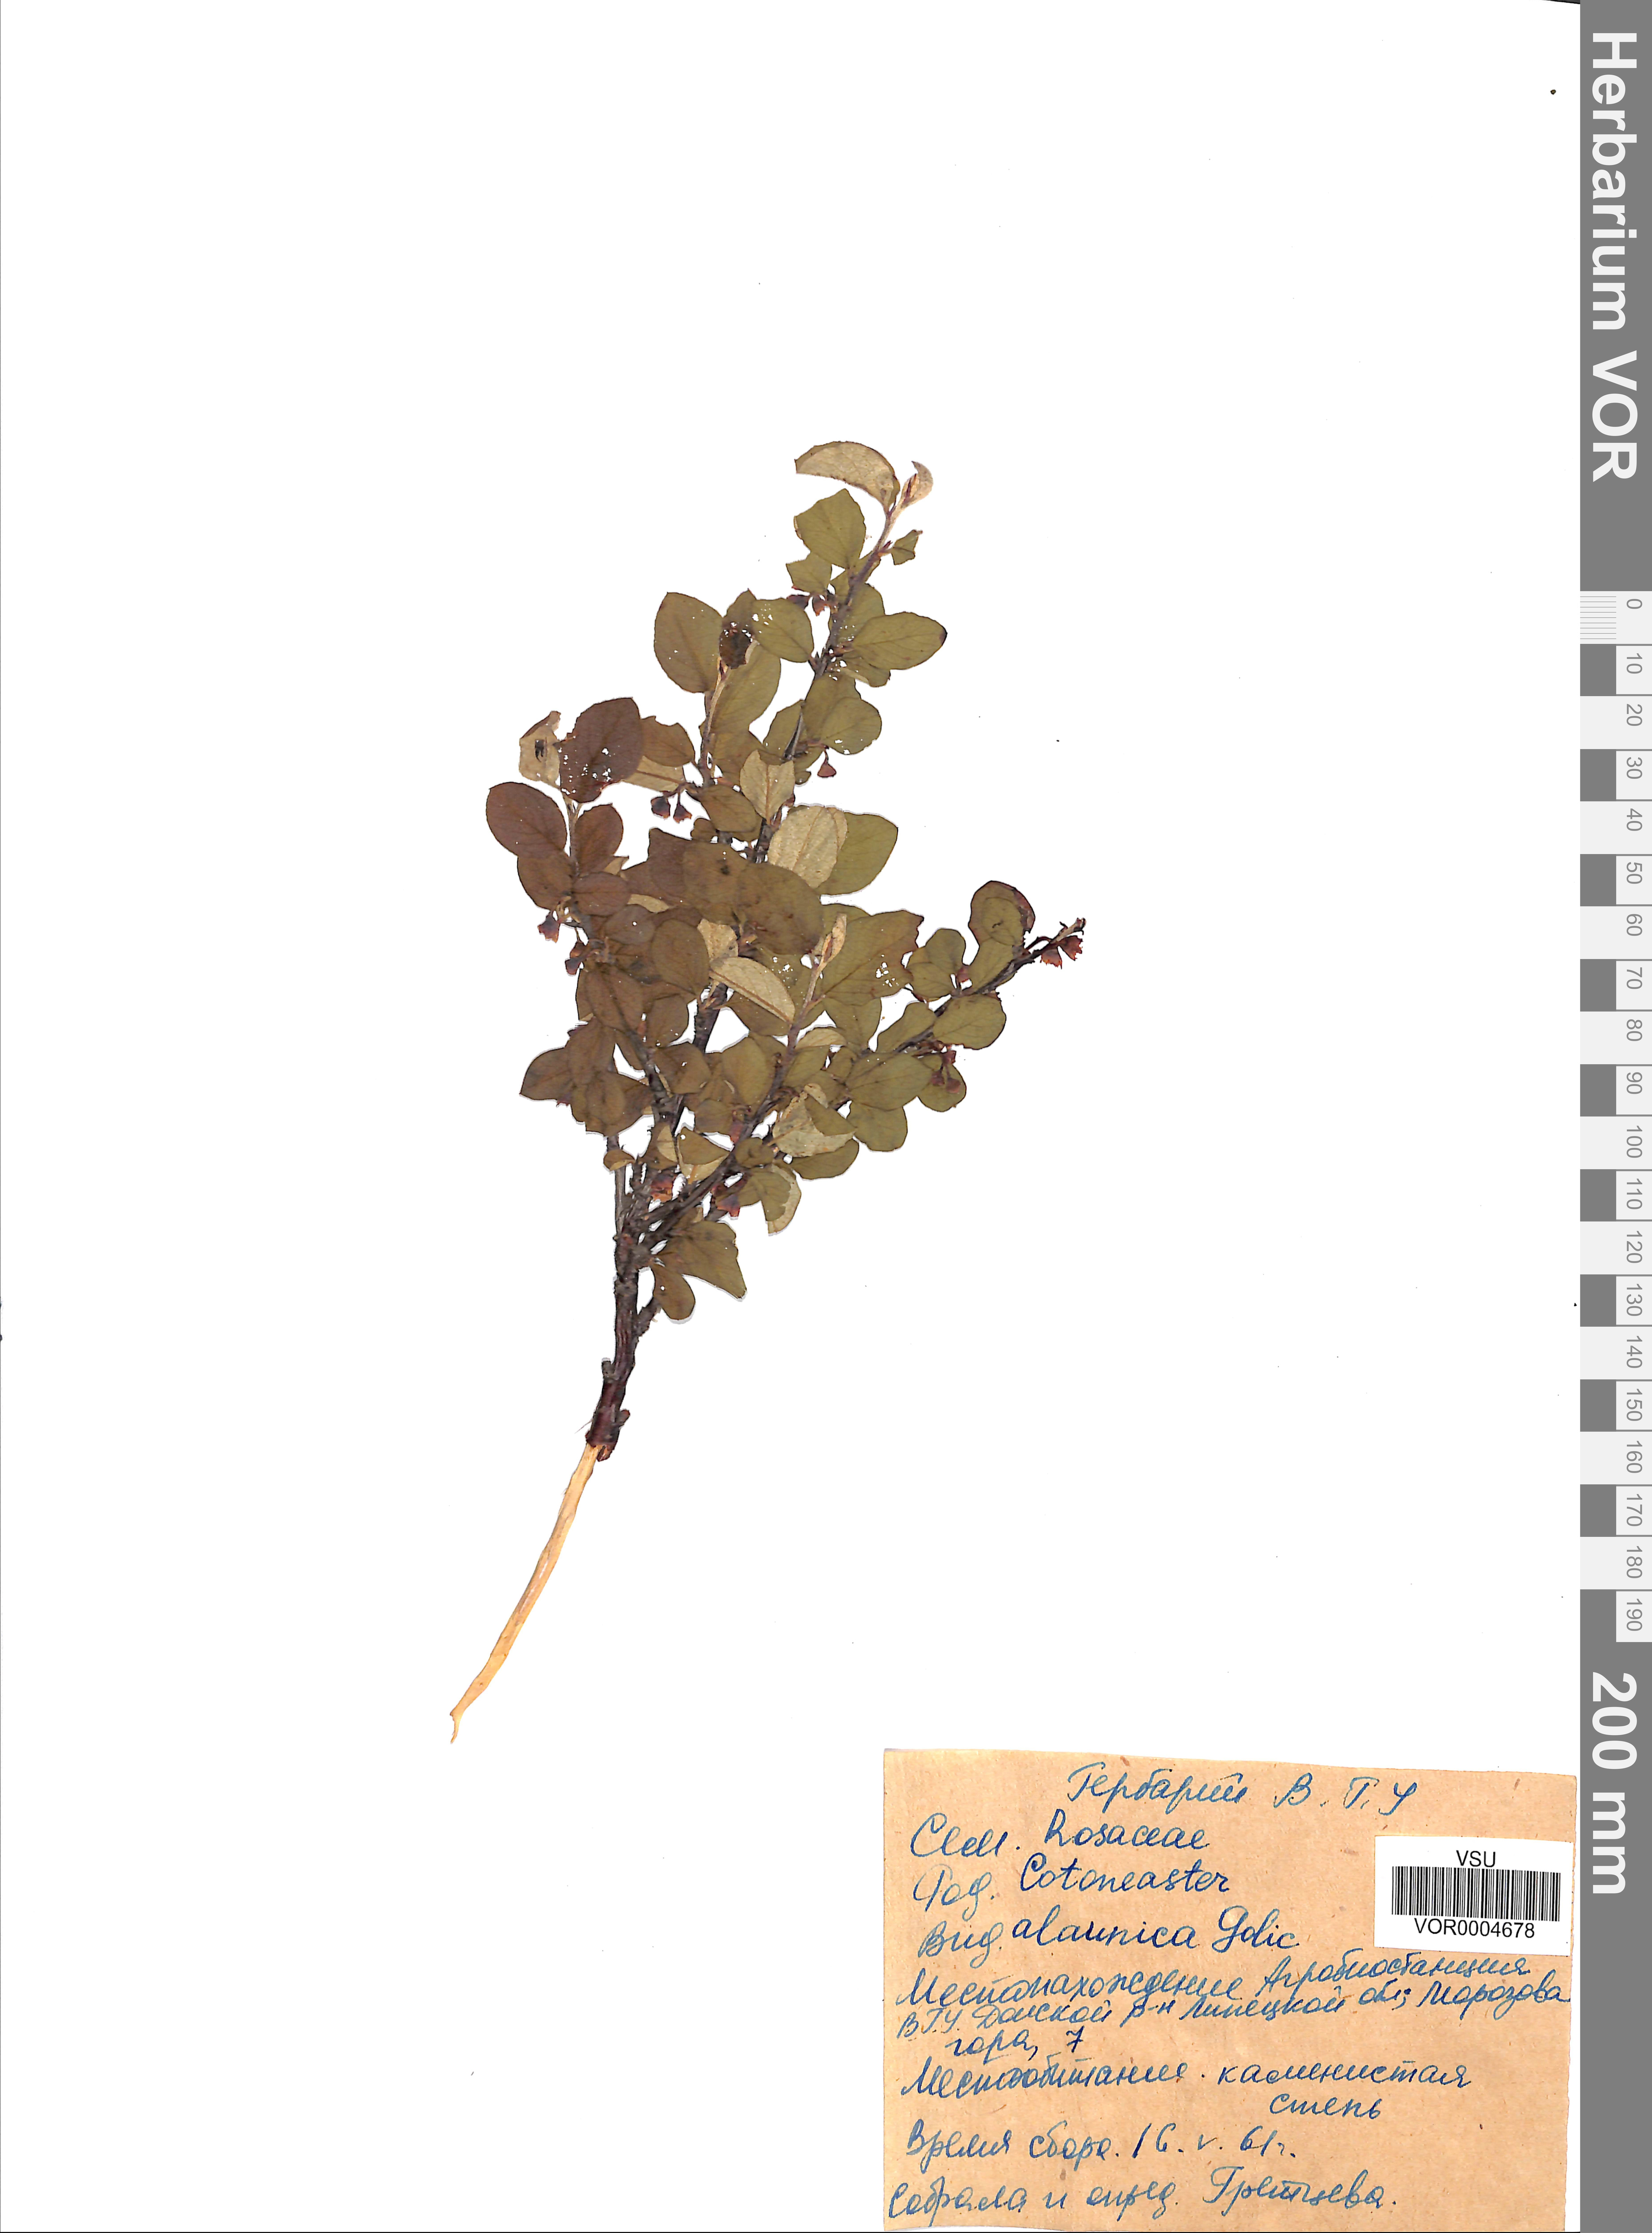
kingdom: Plantae
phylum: Tracheophyta
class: Magnoliopsida
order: Rosales
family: Rosaceae
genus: Cotoneaster
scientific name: Cotoneaster alaunicus
